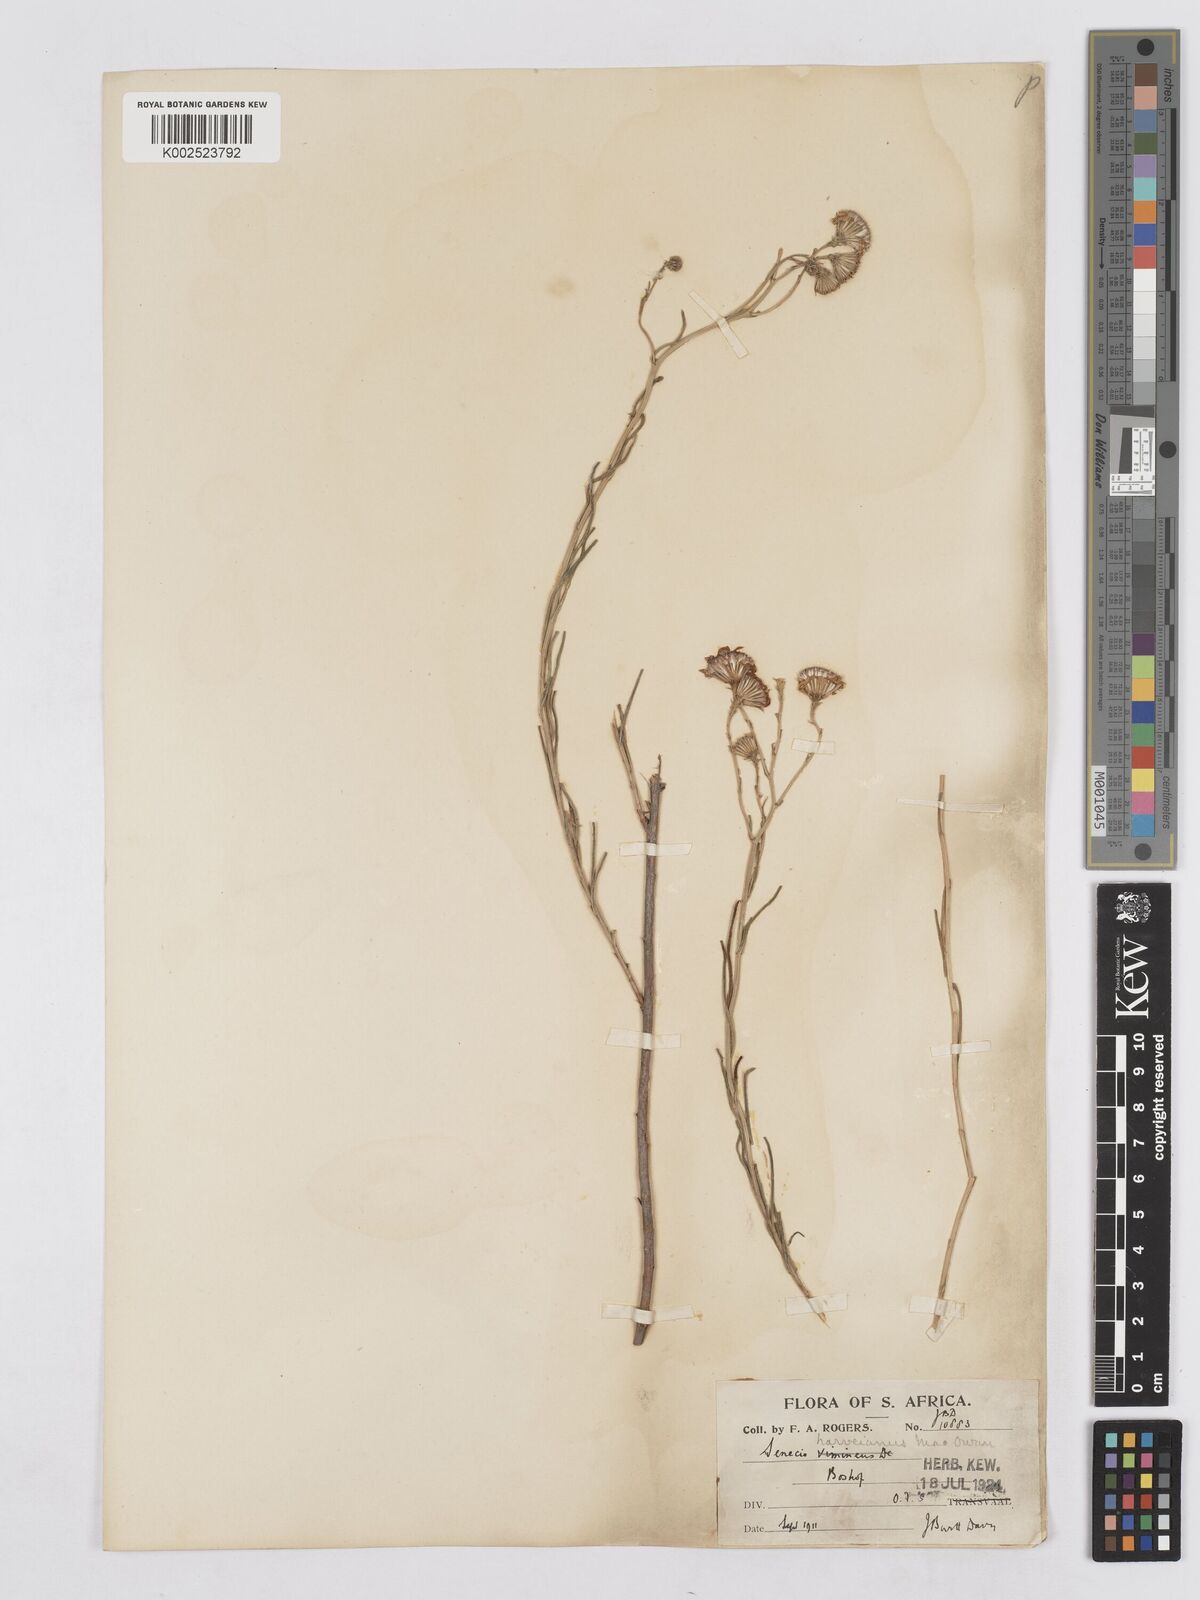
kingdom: Plantae
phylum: Tracheophyta
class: Magnoliopsida
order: Asterales
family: Asteraceae
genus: Senecio
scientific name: Senecio harveyanus
